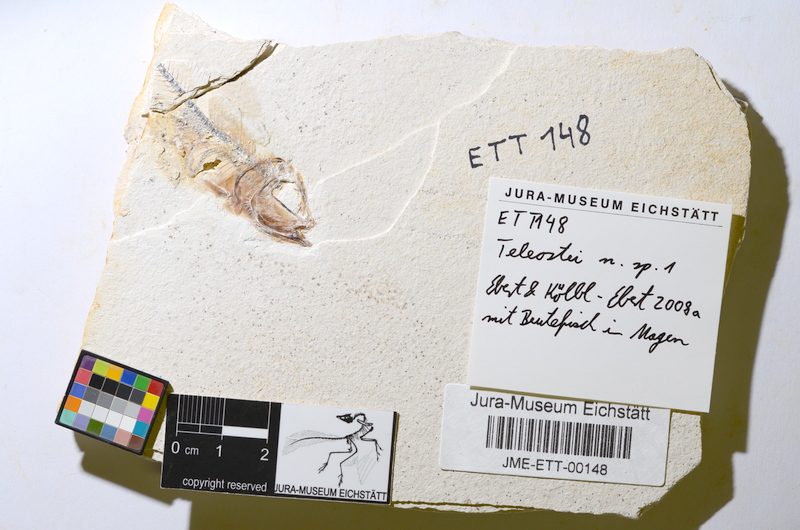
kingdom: Animalia
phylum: Chordata
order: Salmoniformes
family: Orthogonikleithridae
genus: Orthogonikleithrus
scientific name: Orthogonikleithrus hoelli
